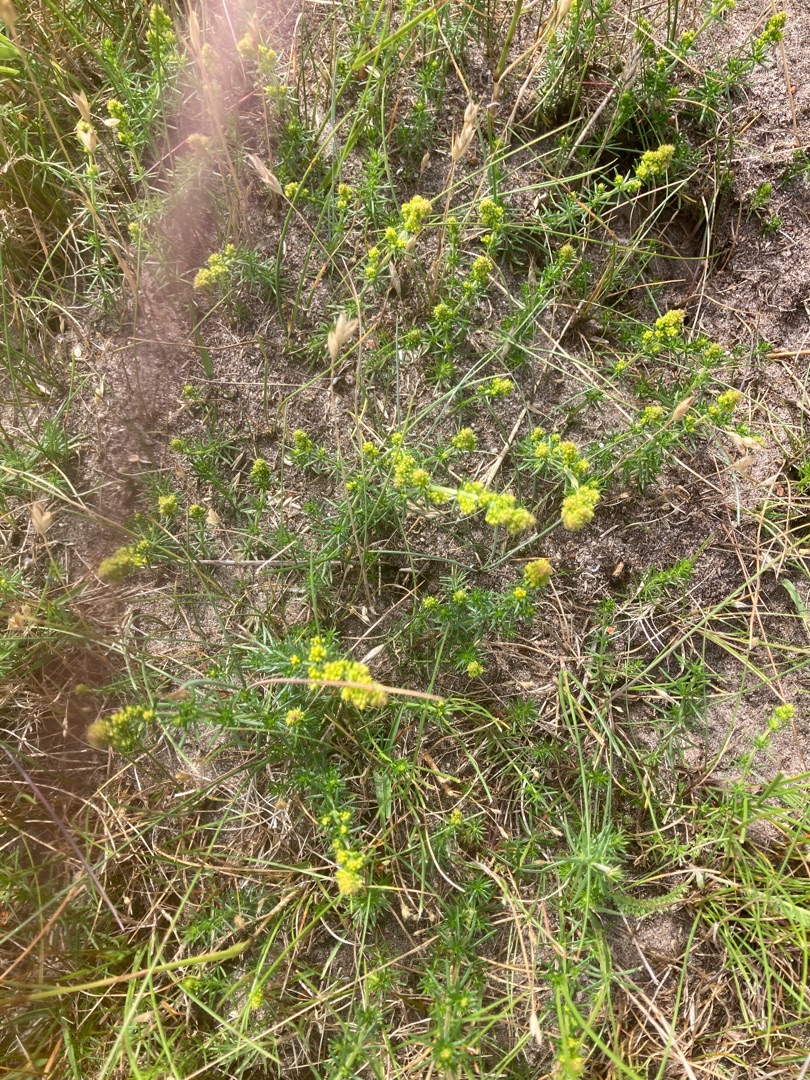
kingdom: Plantae
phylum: Tracheophyta
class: Magnoliopsida
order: Gentianales
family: Rubiaceae
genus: Galium
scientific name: Galium verum
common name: Gul snerre
